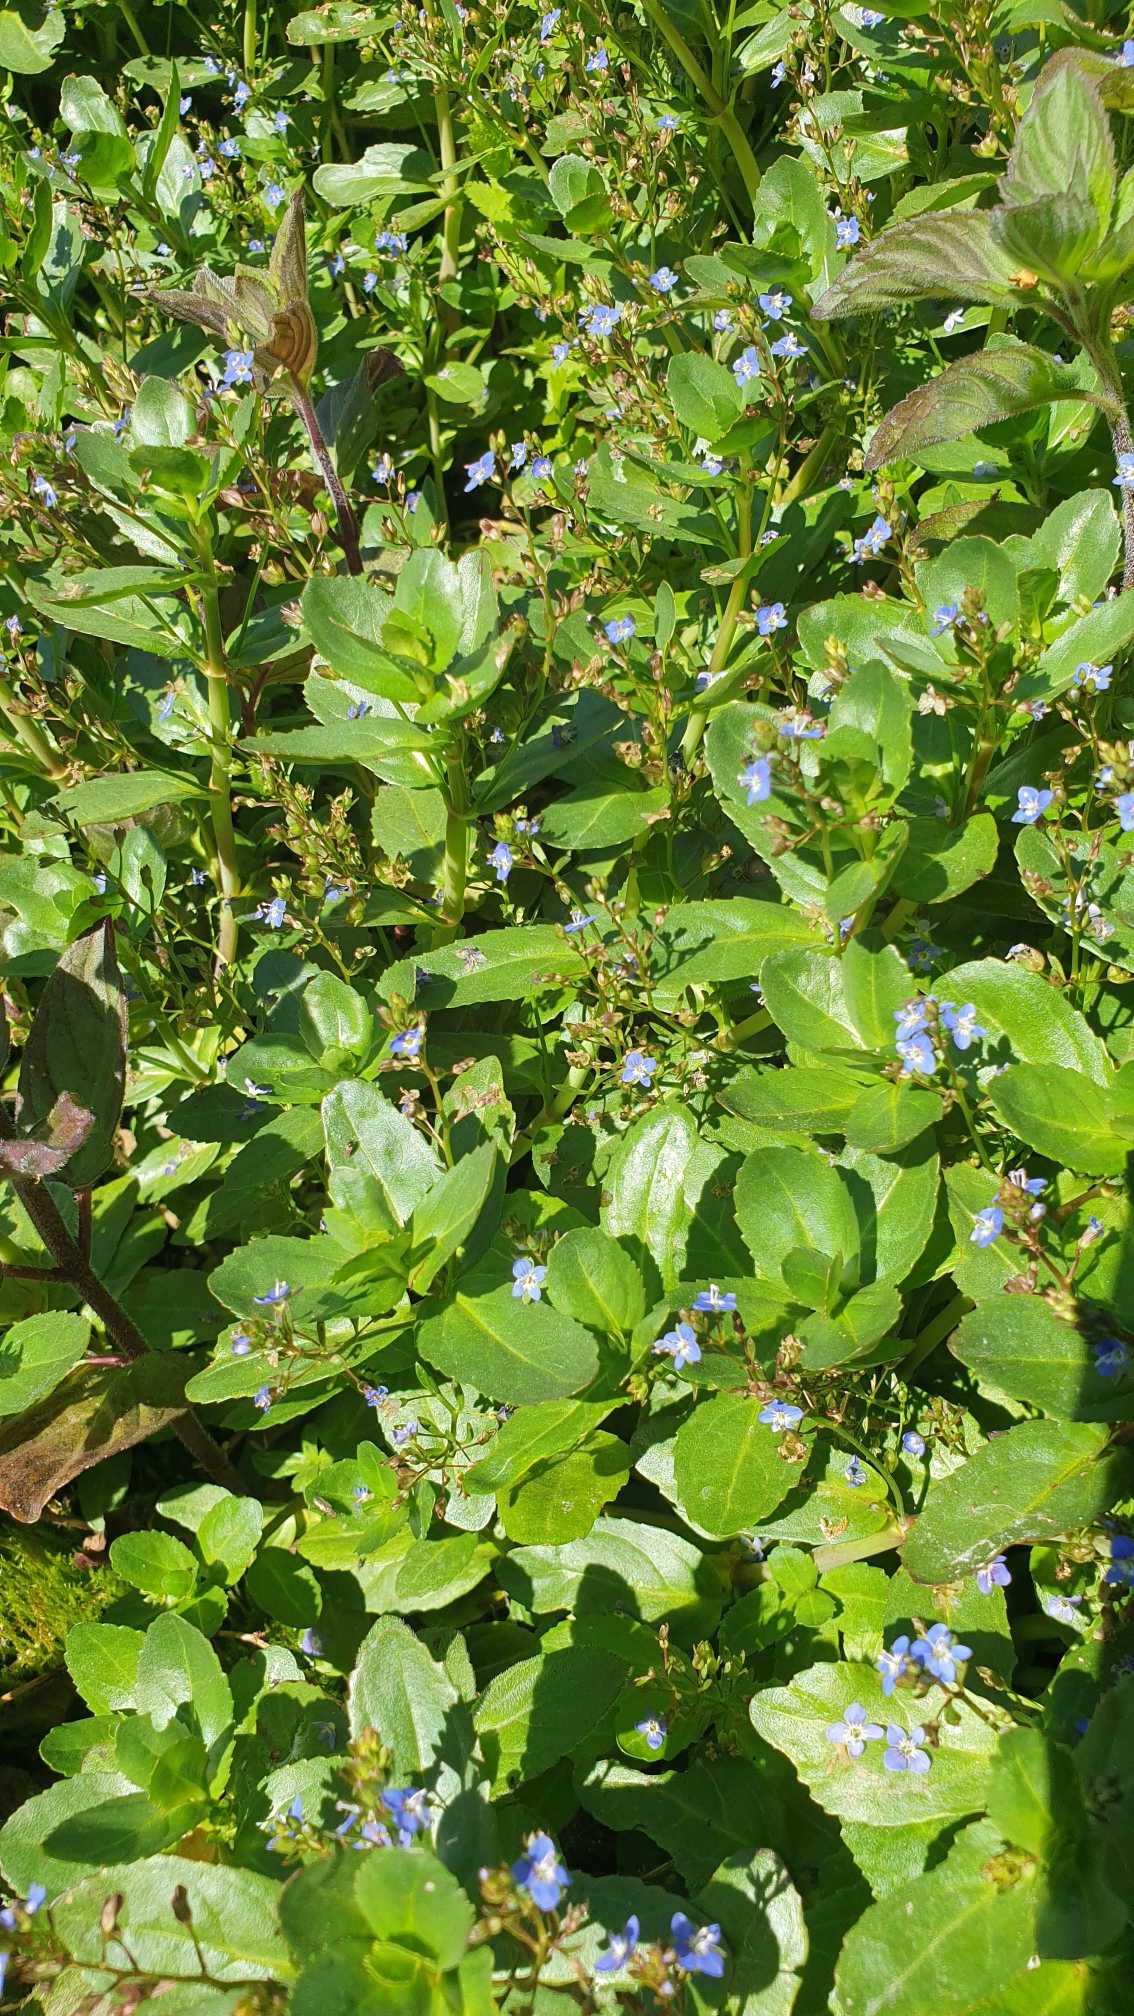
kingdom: Plantae
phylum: Tracheophyta
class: Magnoliopsida
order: Lamiales
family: Plantaginaceae
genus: Veronica
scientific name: Veronica beccabunga
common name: Tykbladet ærenpris
